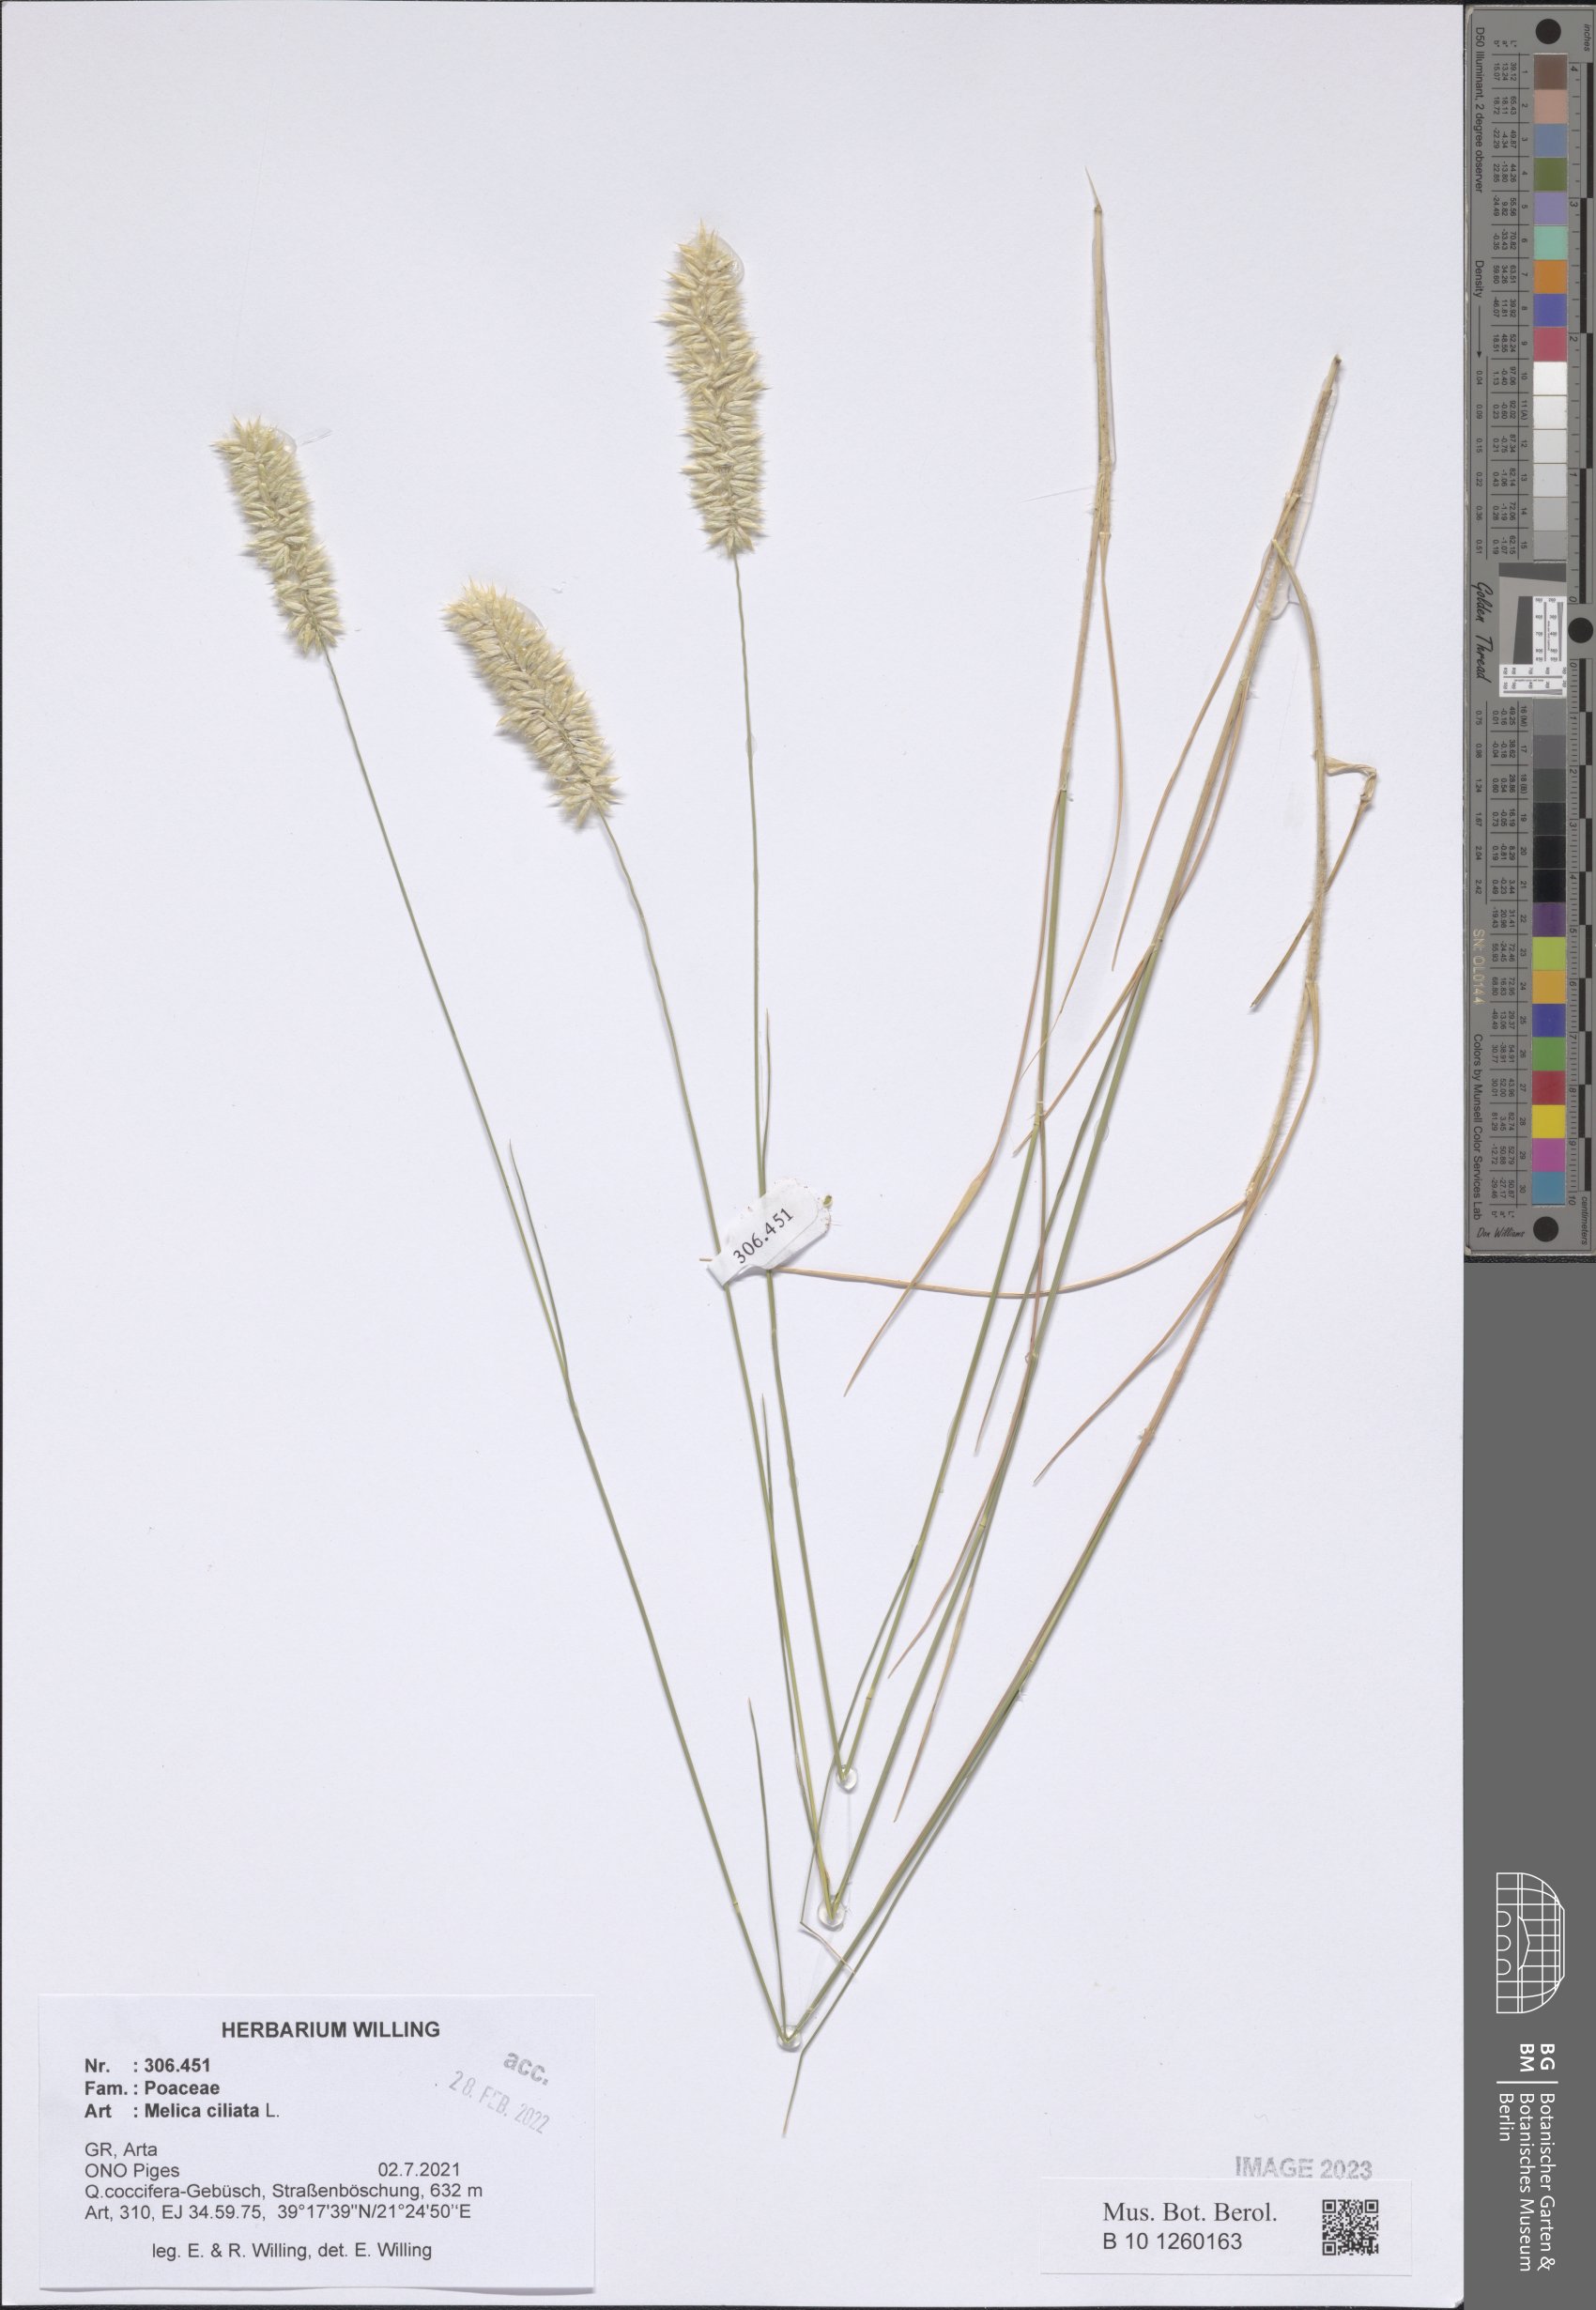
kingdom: Plantae
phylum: Tracheophyta
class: Liliopsida
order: Poales
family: Poaceae
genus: Melica
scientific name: Melica ciliata
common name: Hairy melicgrass
